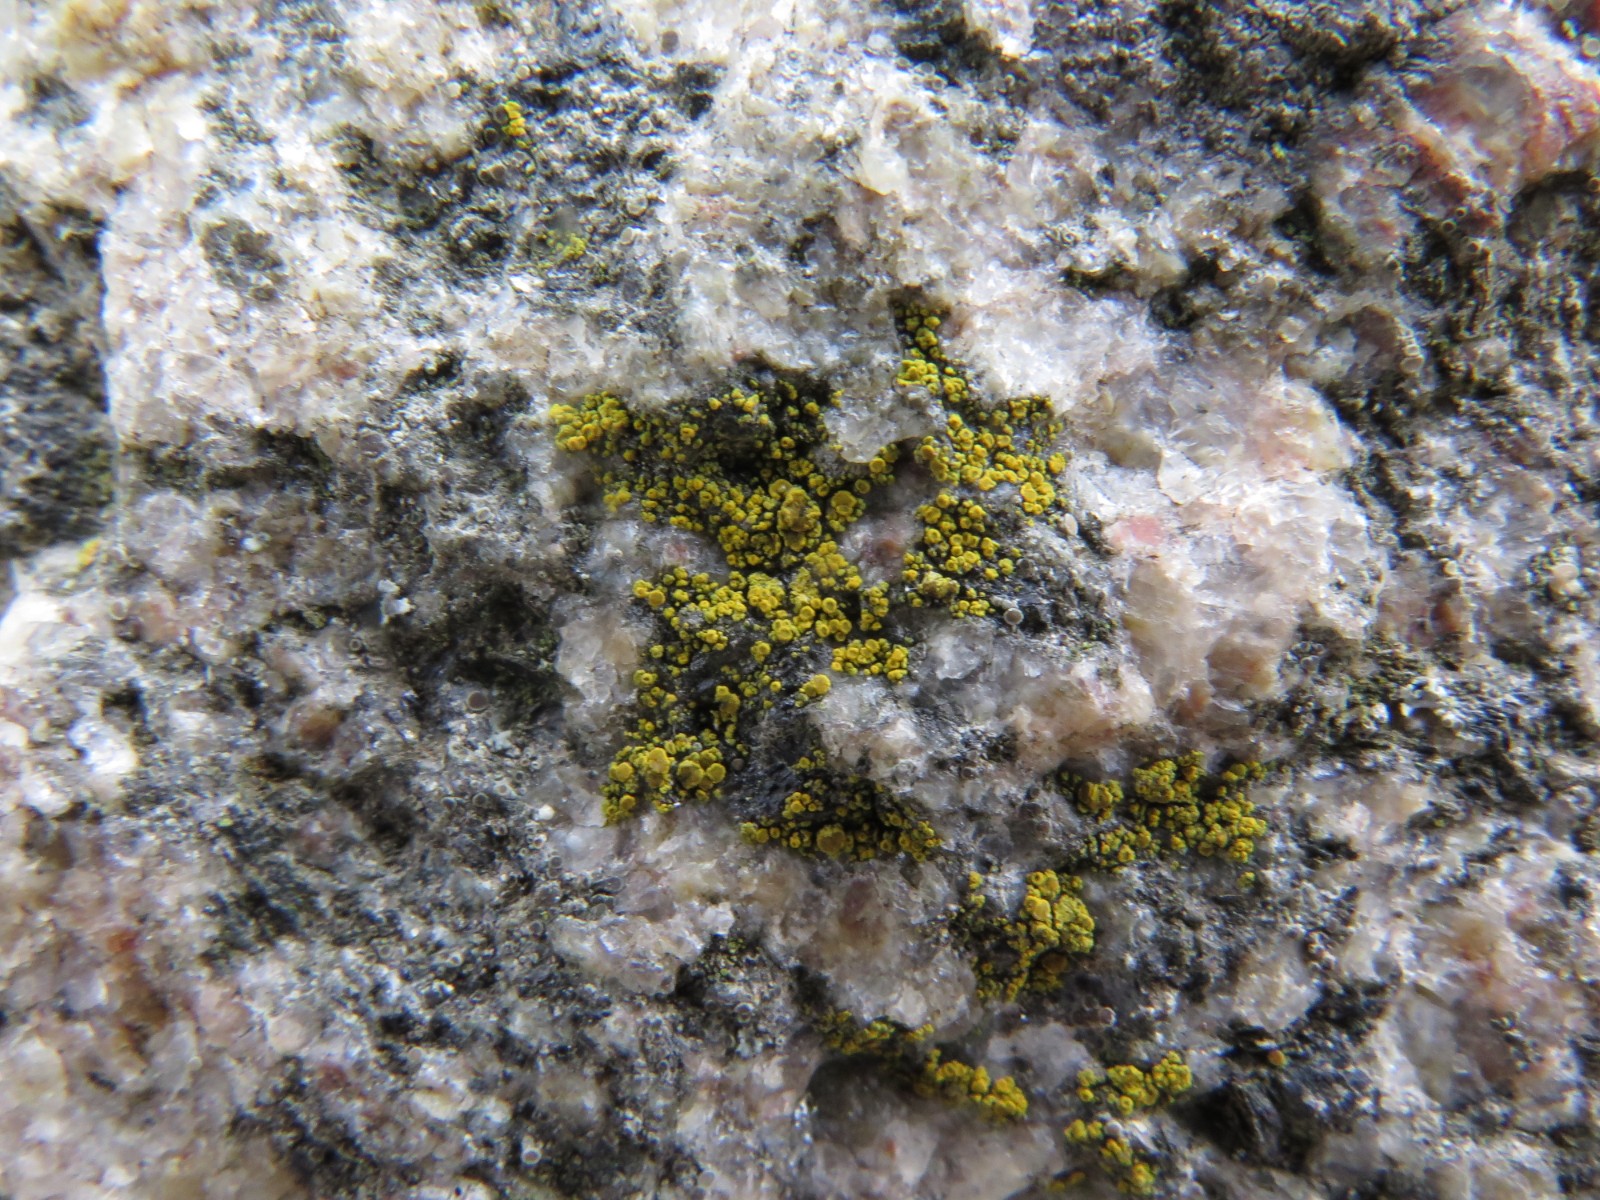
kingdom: Fungi
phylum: Ascomycota
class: Candelariomycetes
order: Candelariales
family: Candelariaceae
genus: Candelariella
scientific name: Candelariella vitellina
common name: almindelig æggeblommelav
